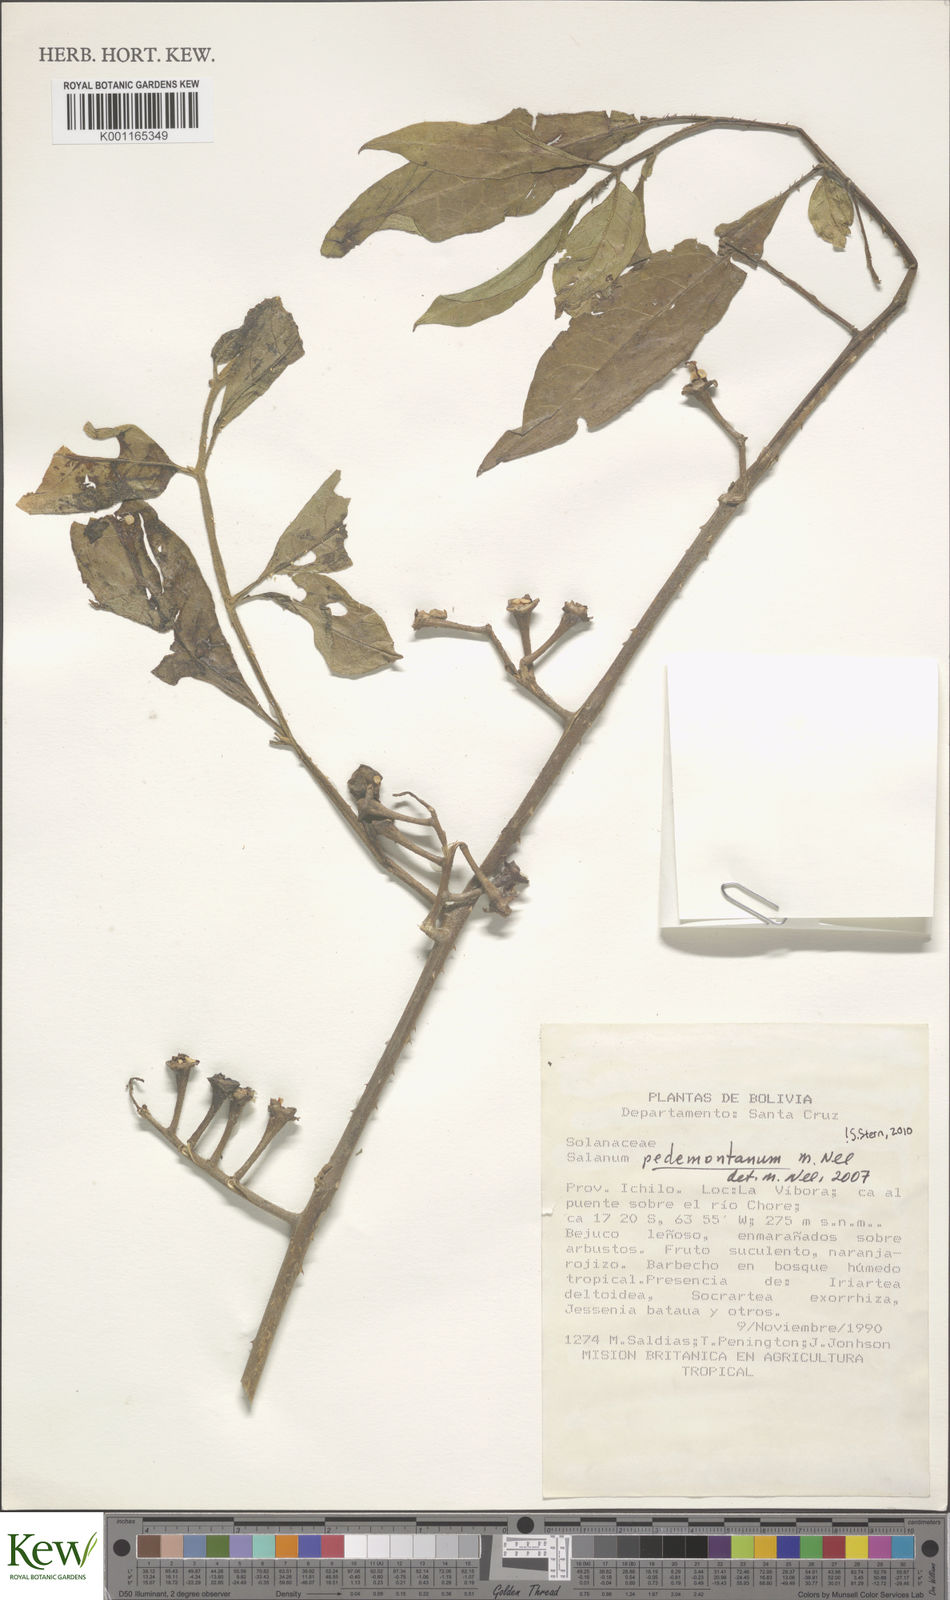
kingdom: Plantae
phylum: Tracheophyta
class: Magnoliopsida
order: Solanales
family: Solanaceae
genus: Solanum
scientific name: Solanum pedemontanum
